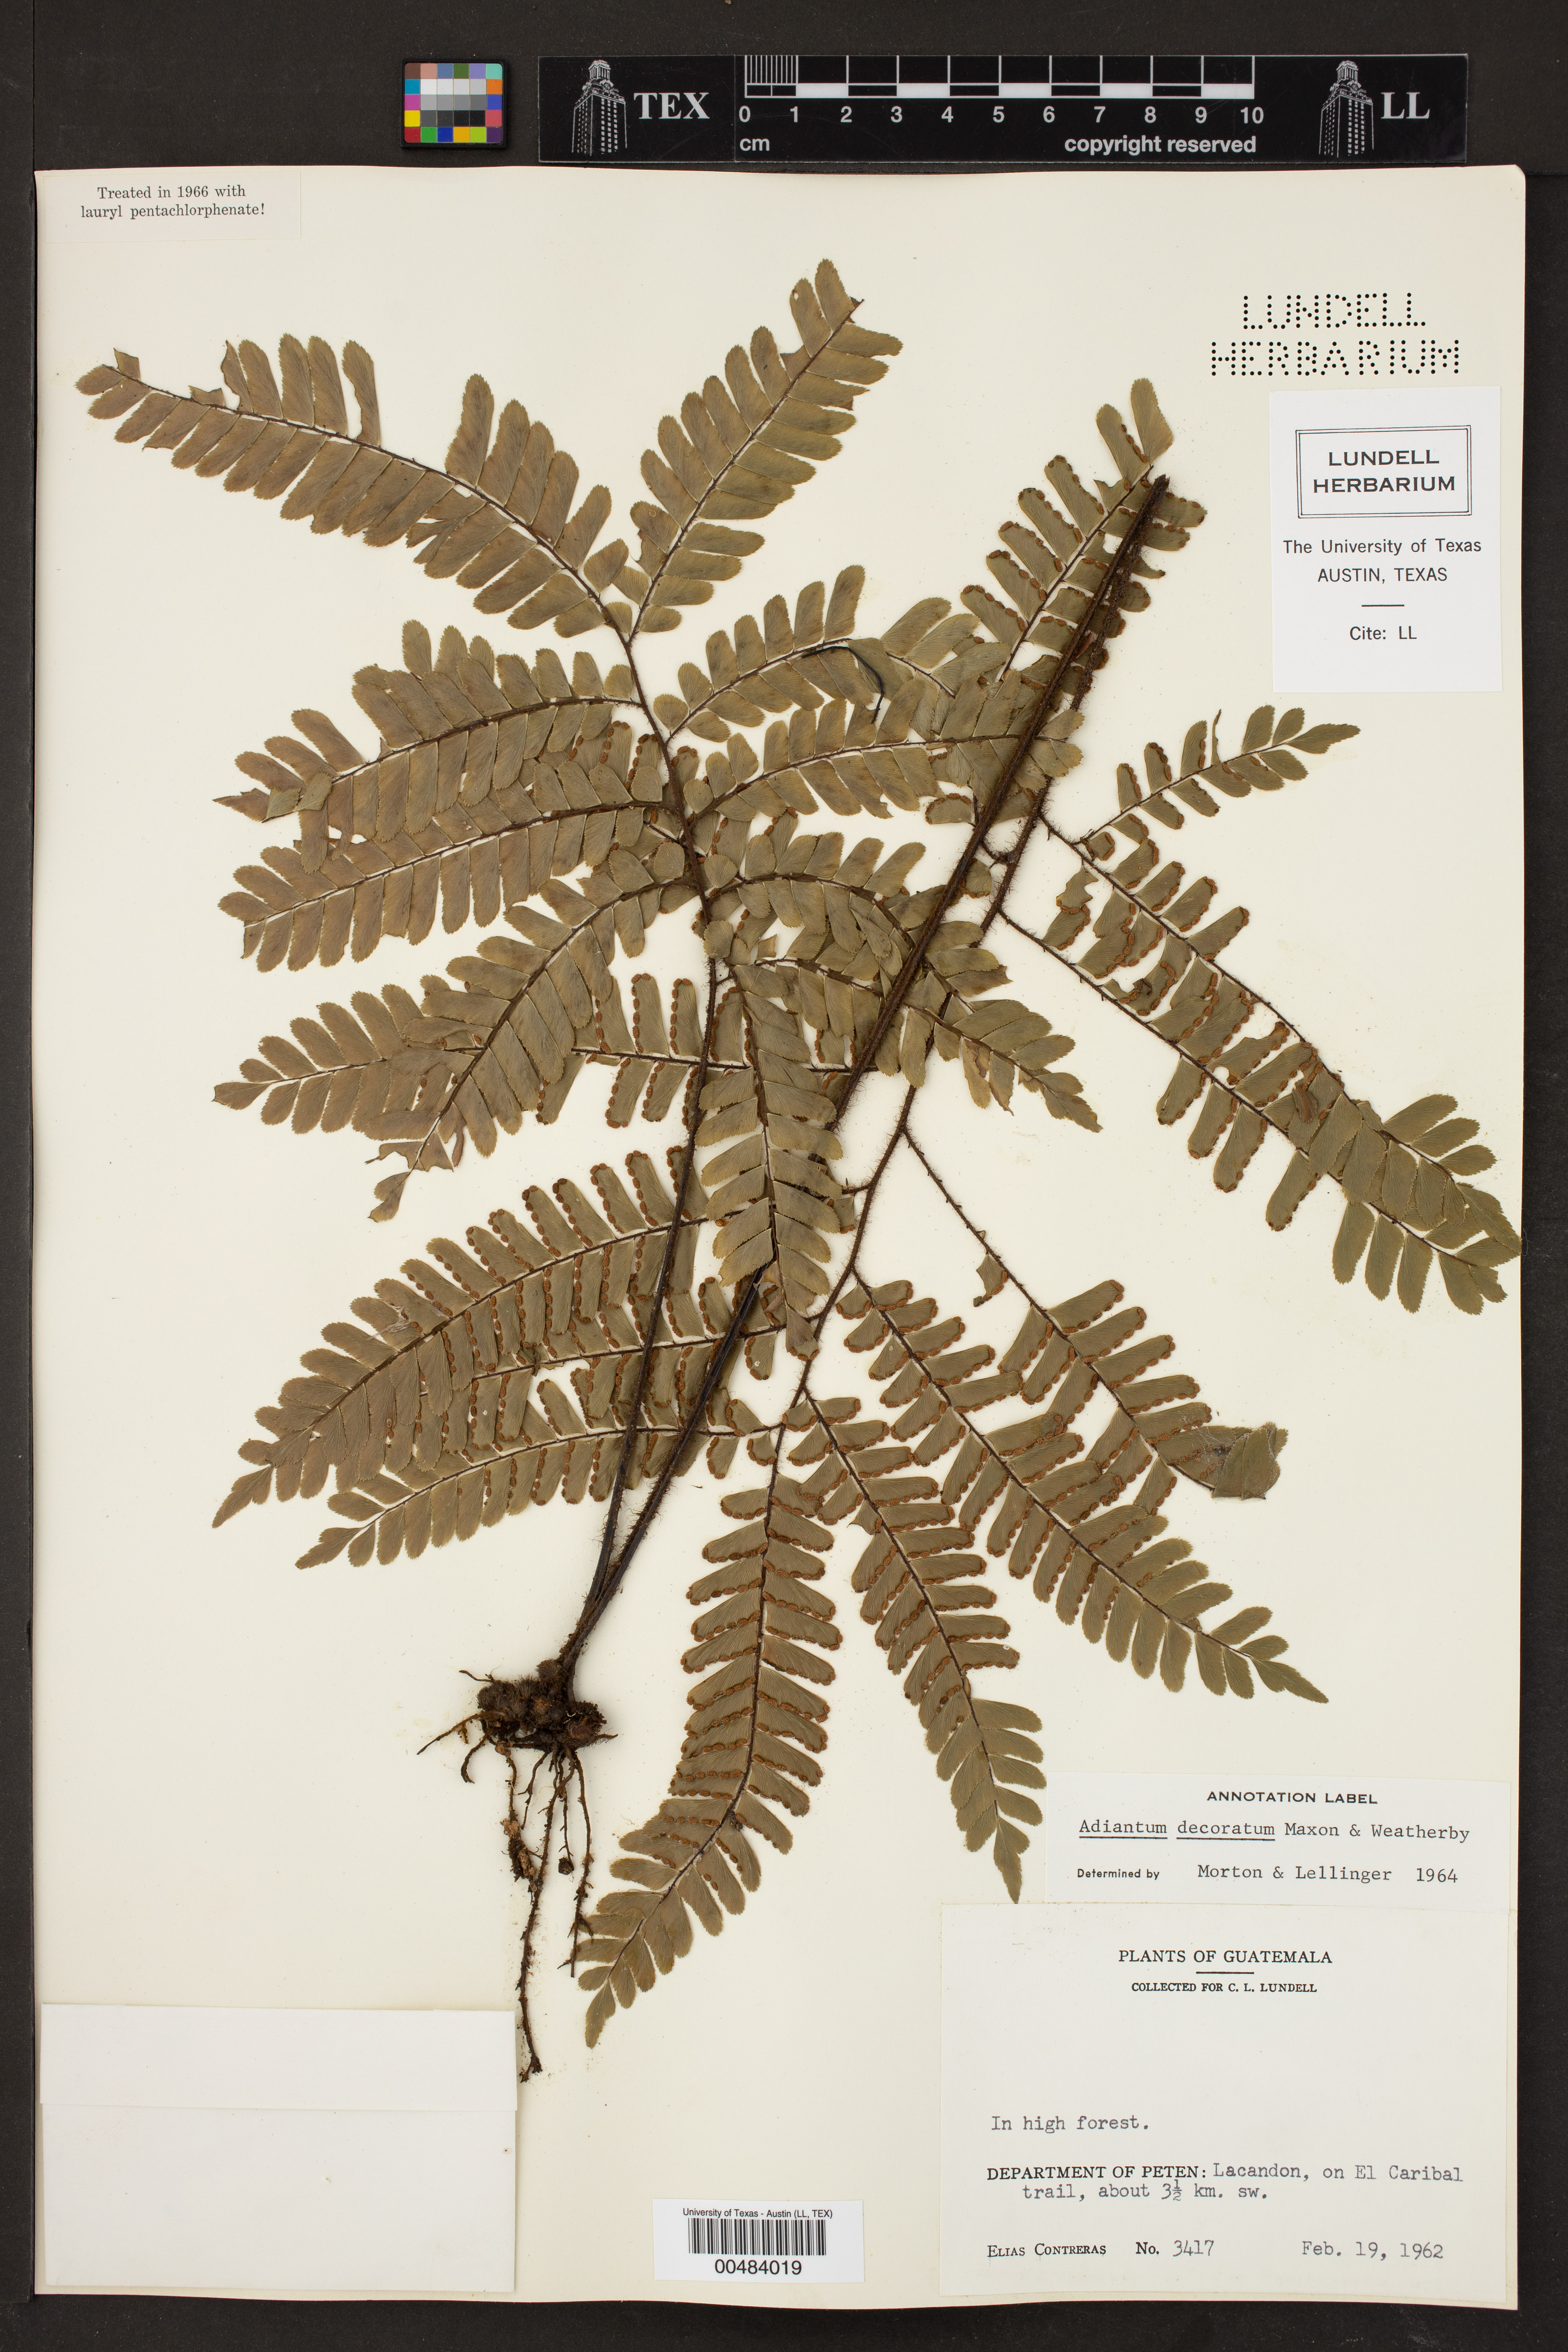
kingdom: Plantae
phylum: Tracheophyta
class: Polypodiopsida
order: Polypodiales
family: Pteridaceae
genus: Adiantum
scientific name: Adiantum decoratum
